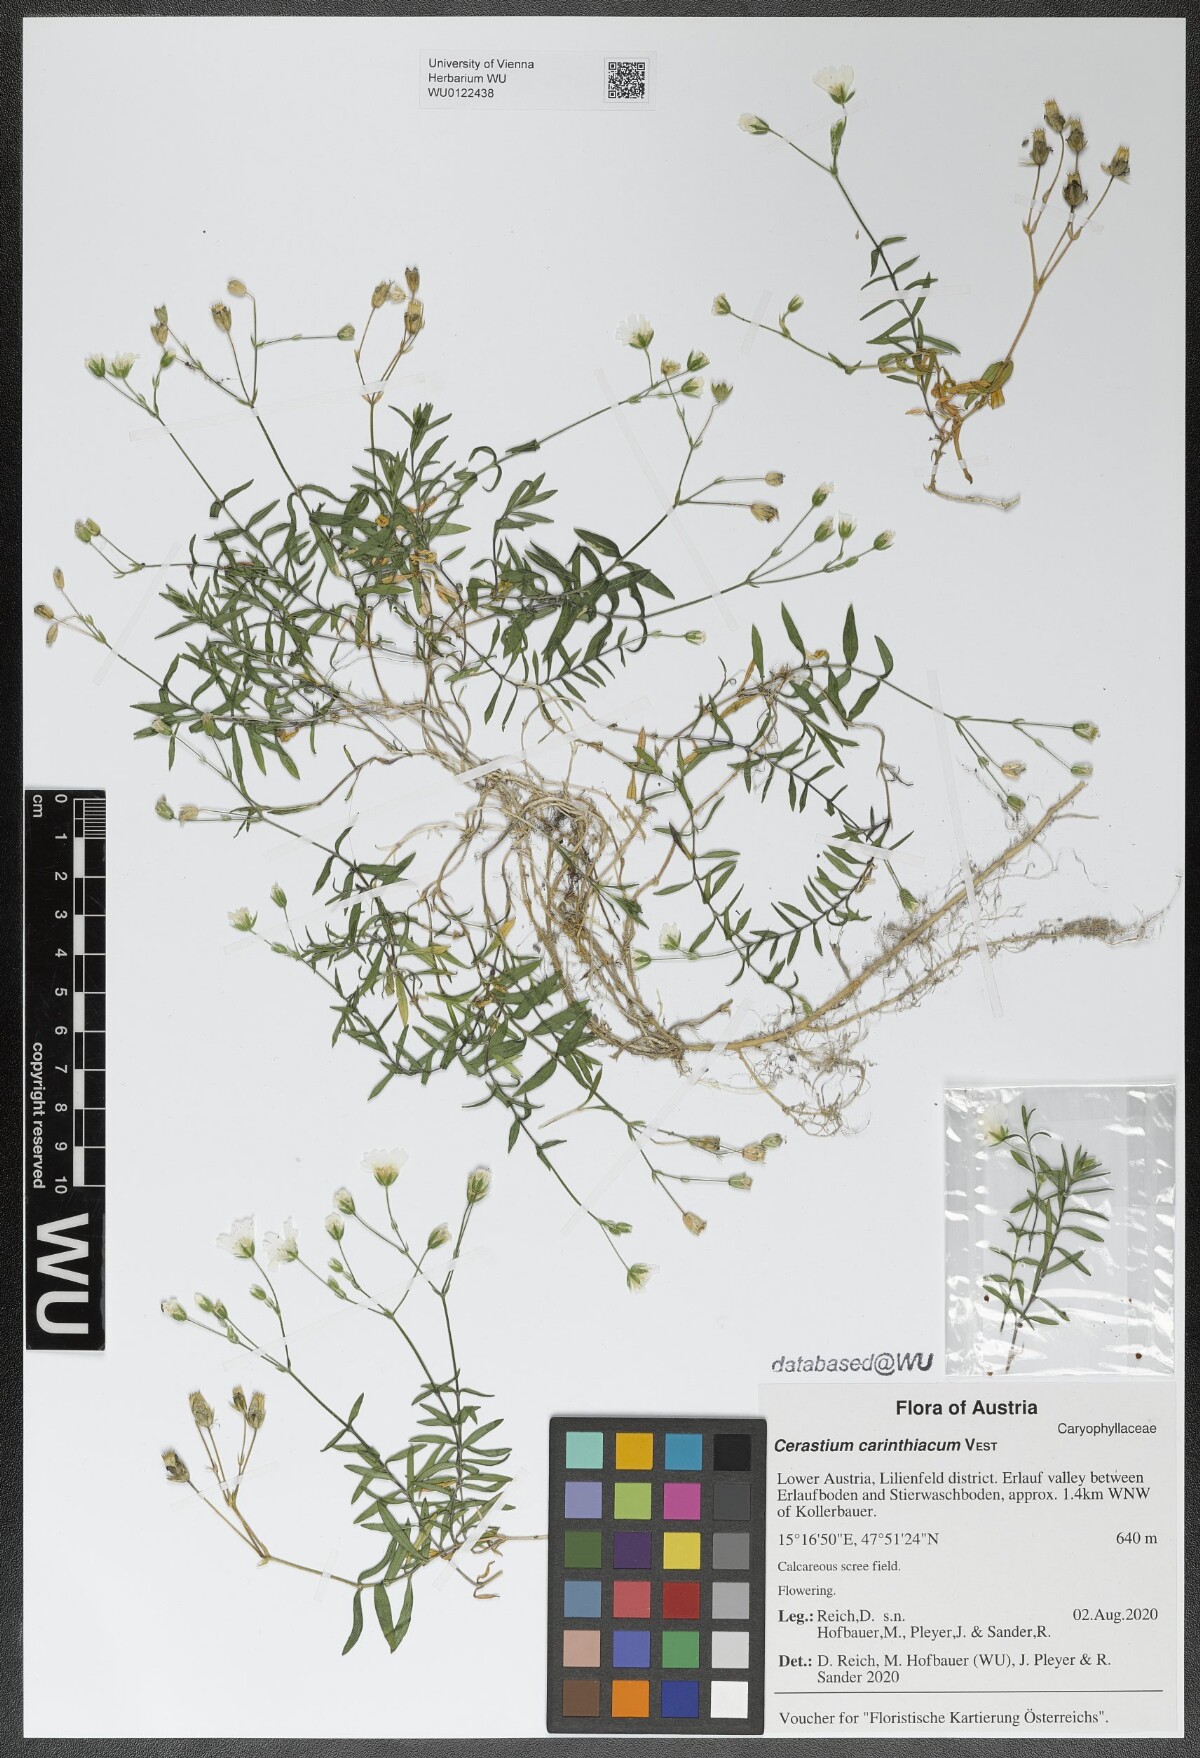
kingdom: Plantae
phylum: Tracheophyta
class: Magnoliopsida
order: Caryophyllales
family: Caryophyllaceae
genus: Cerastium
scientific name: Cerastium carinthiacum
